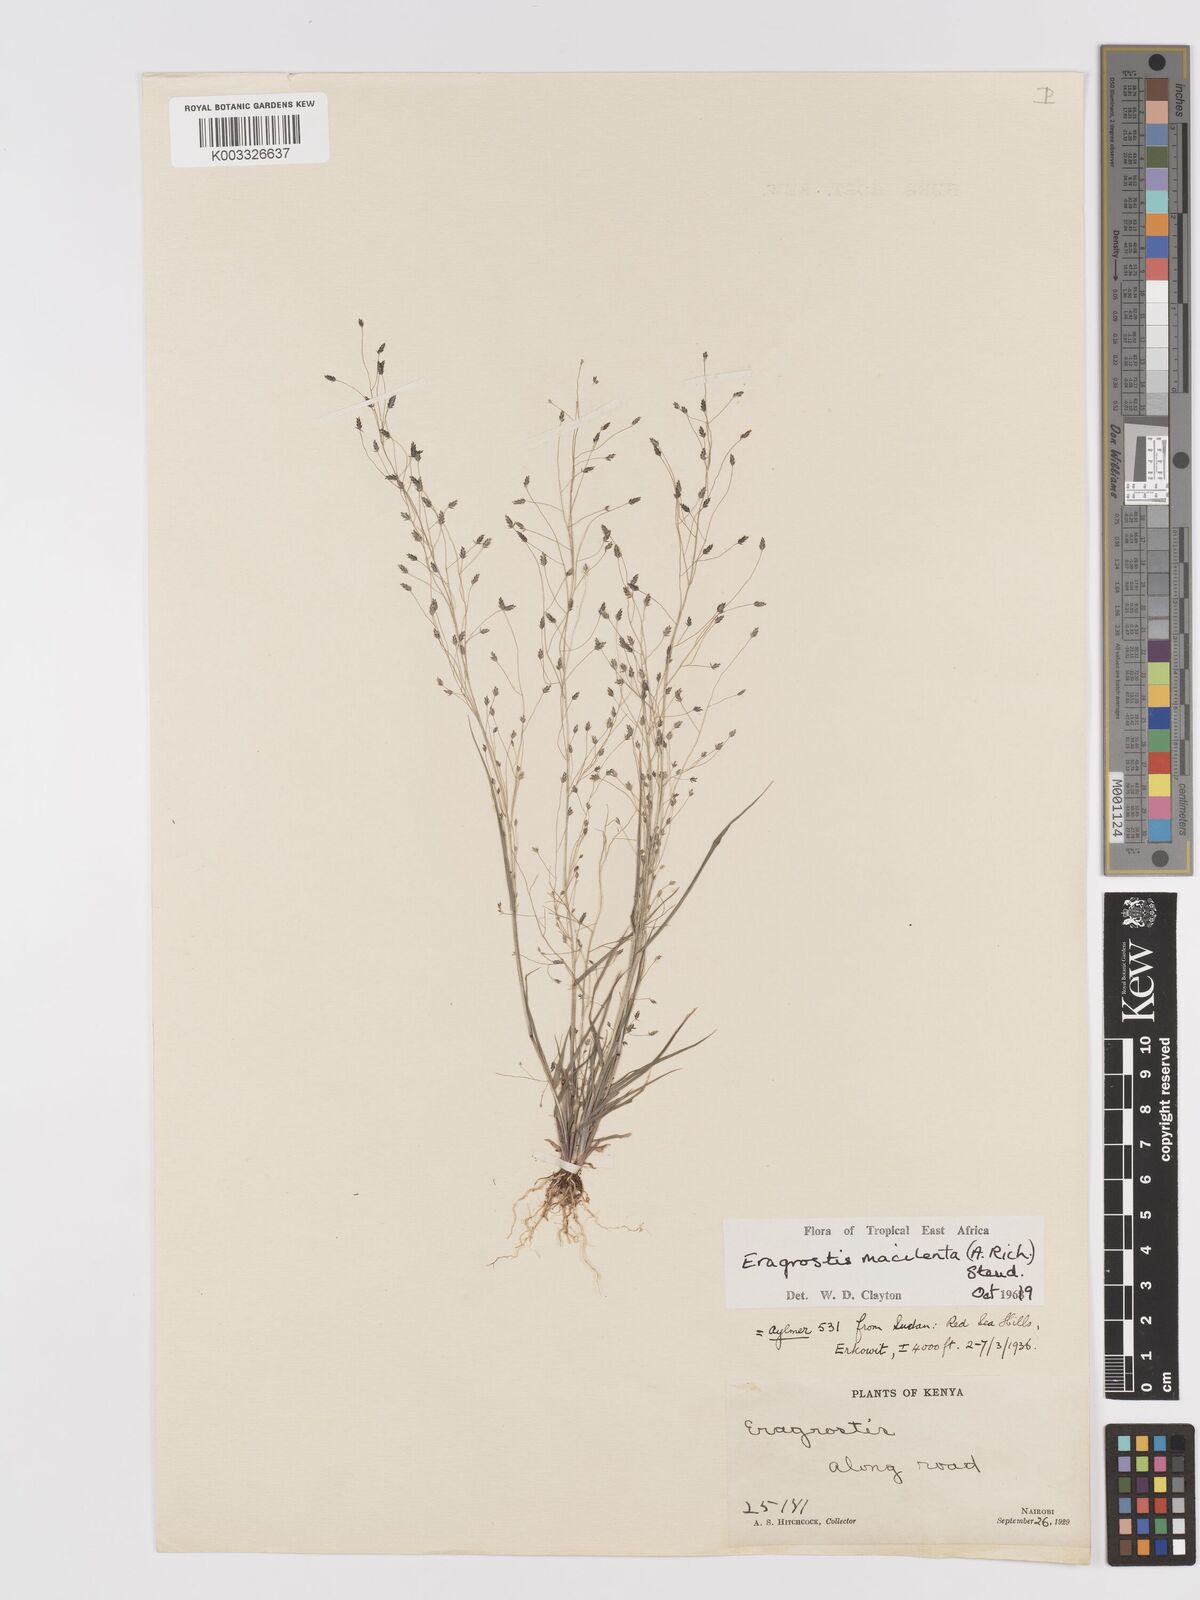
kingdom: Plantae
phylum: Tracheophyta
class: Liliopsida
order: Poales
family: Poaceae
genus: Eragrostis
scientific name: Eragrostis macilenta
